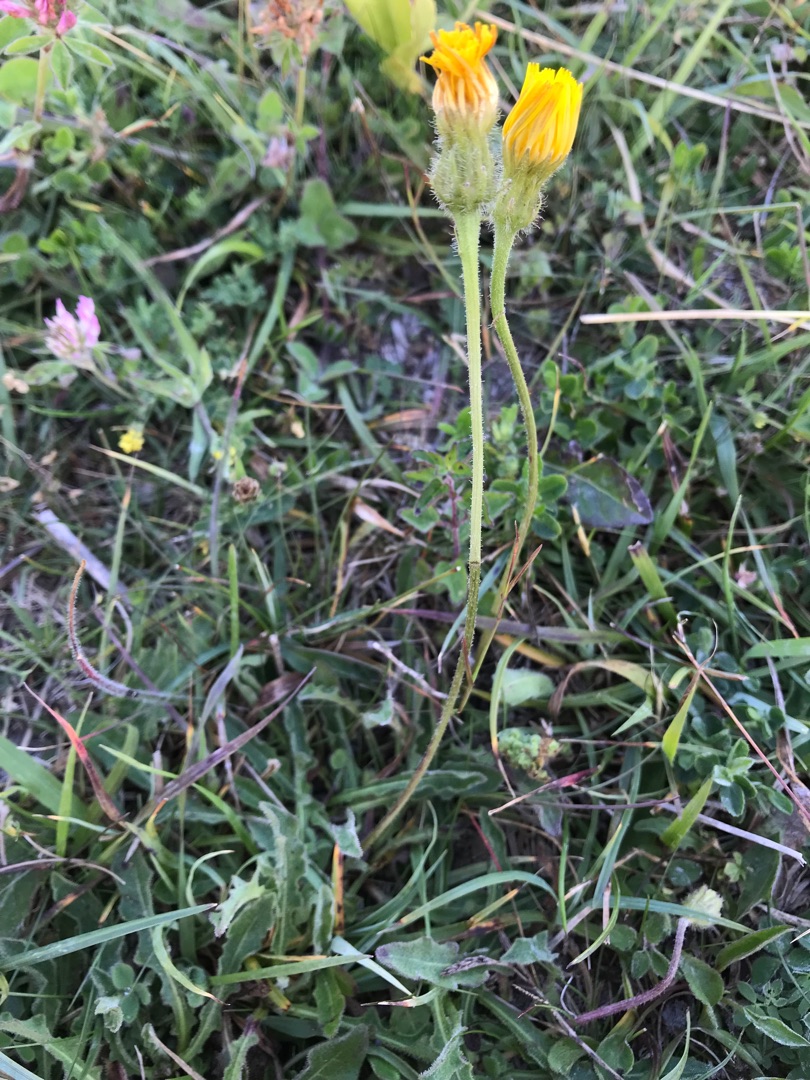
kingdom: Plantae
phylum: Tracheophyta
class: Magnoliopsida
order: Asterales
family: Asteraceae
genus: Leontodon
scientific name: Leontodon hispidus
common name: Stivhåret borst
